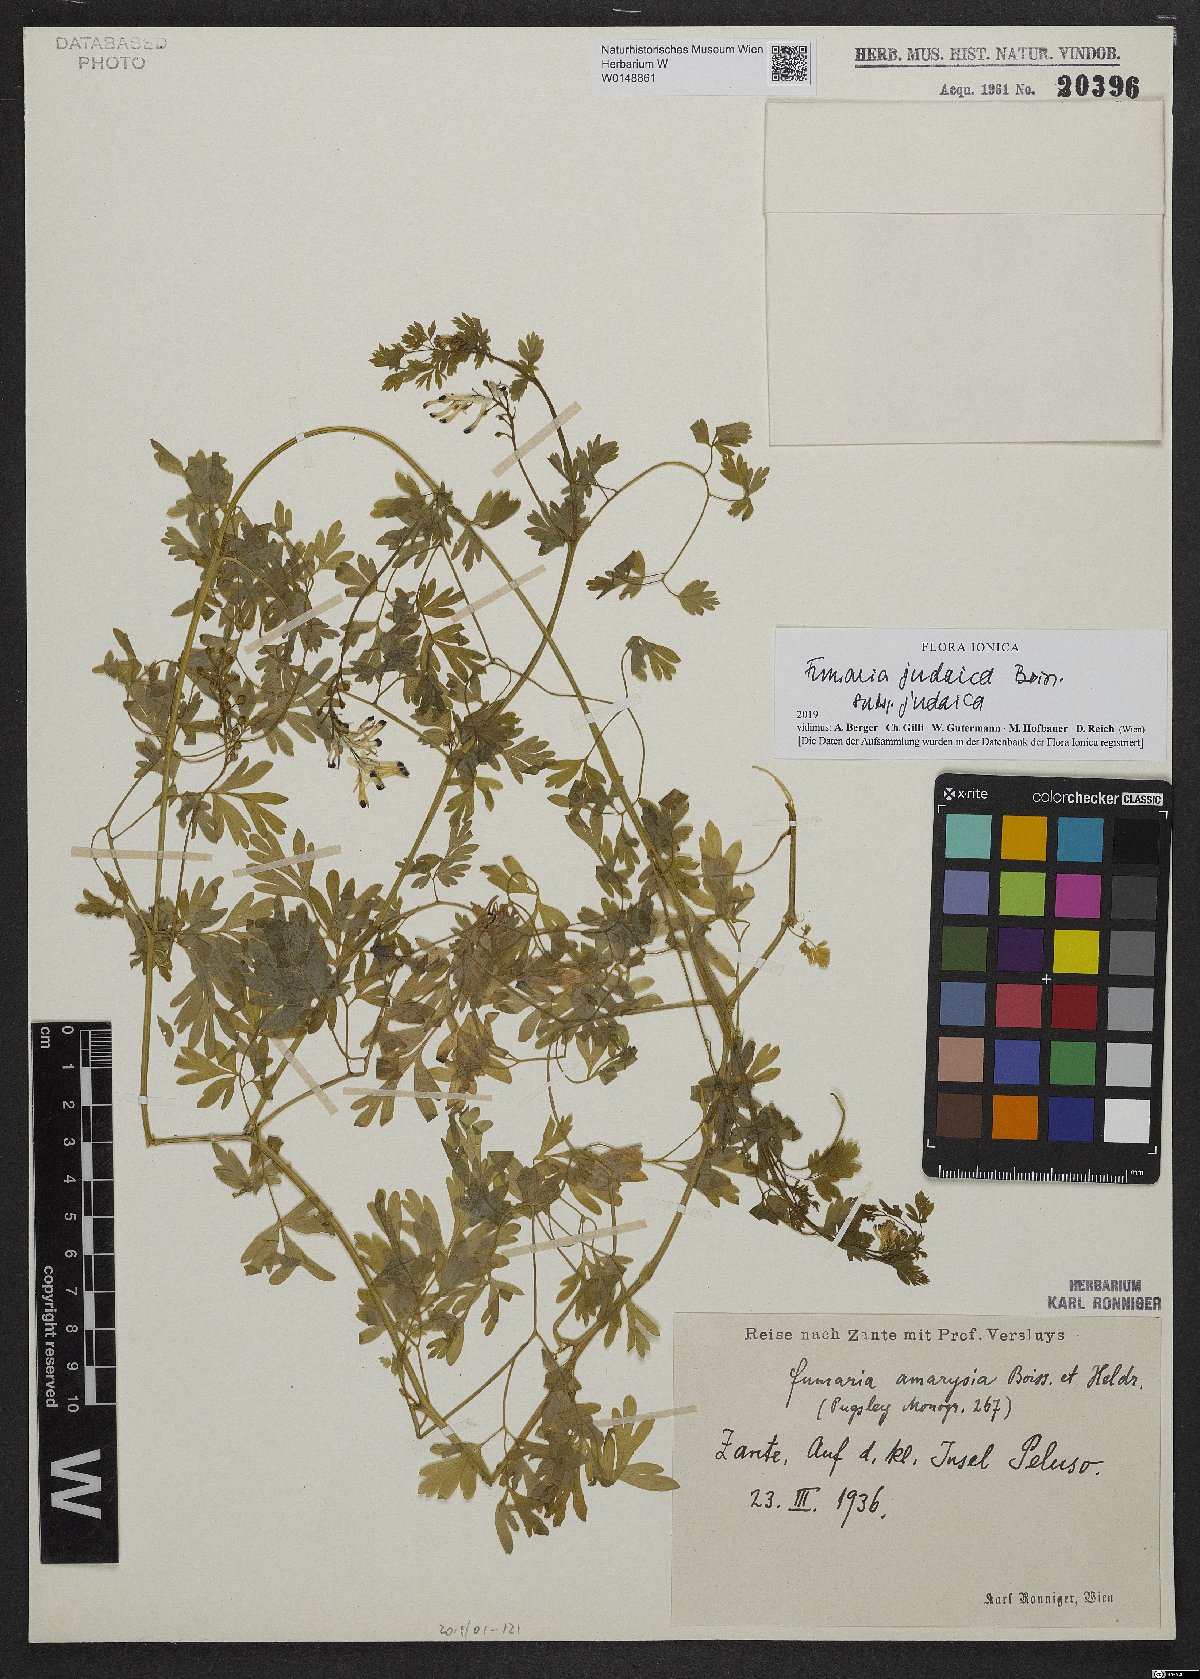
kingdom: Plantae
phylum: Tracheophyta
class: Magnoliopsida
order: Ranunculales
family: Papaveraceae
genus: Fumaria
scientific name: Fumaria judaica
